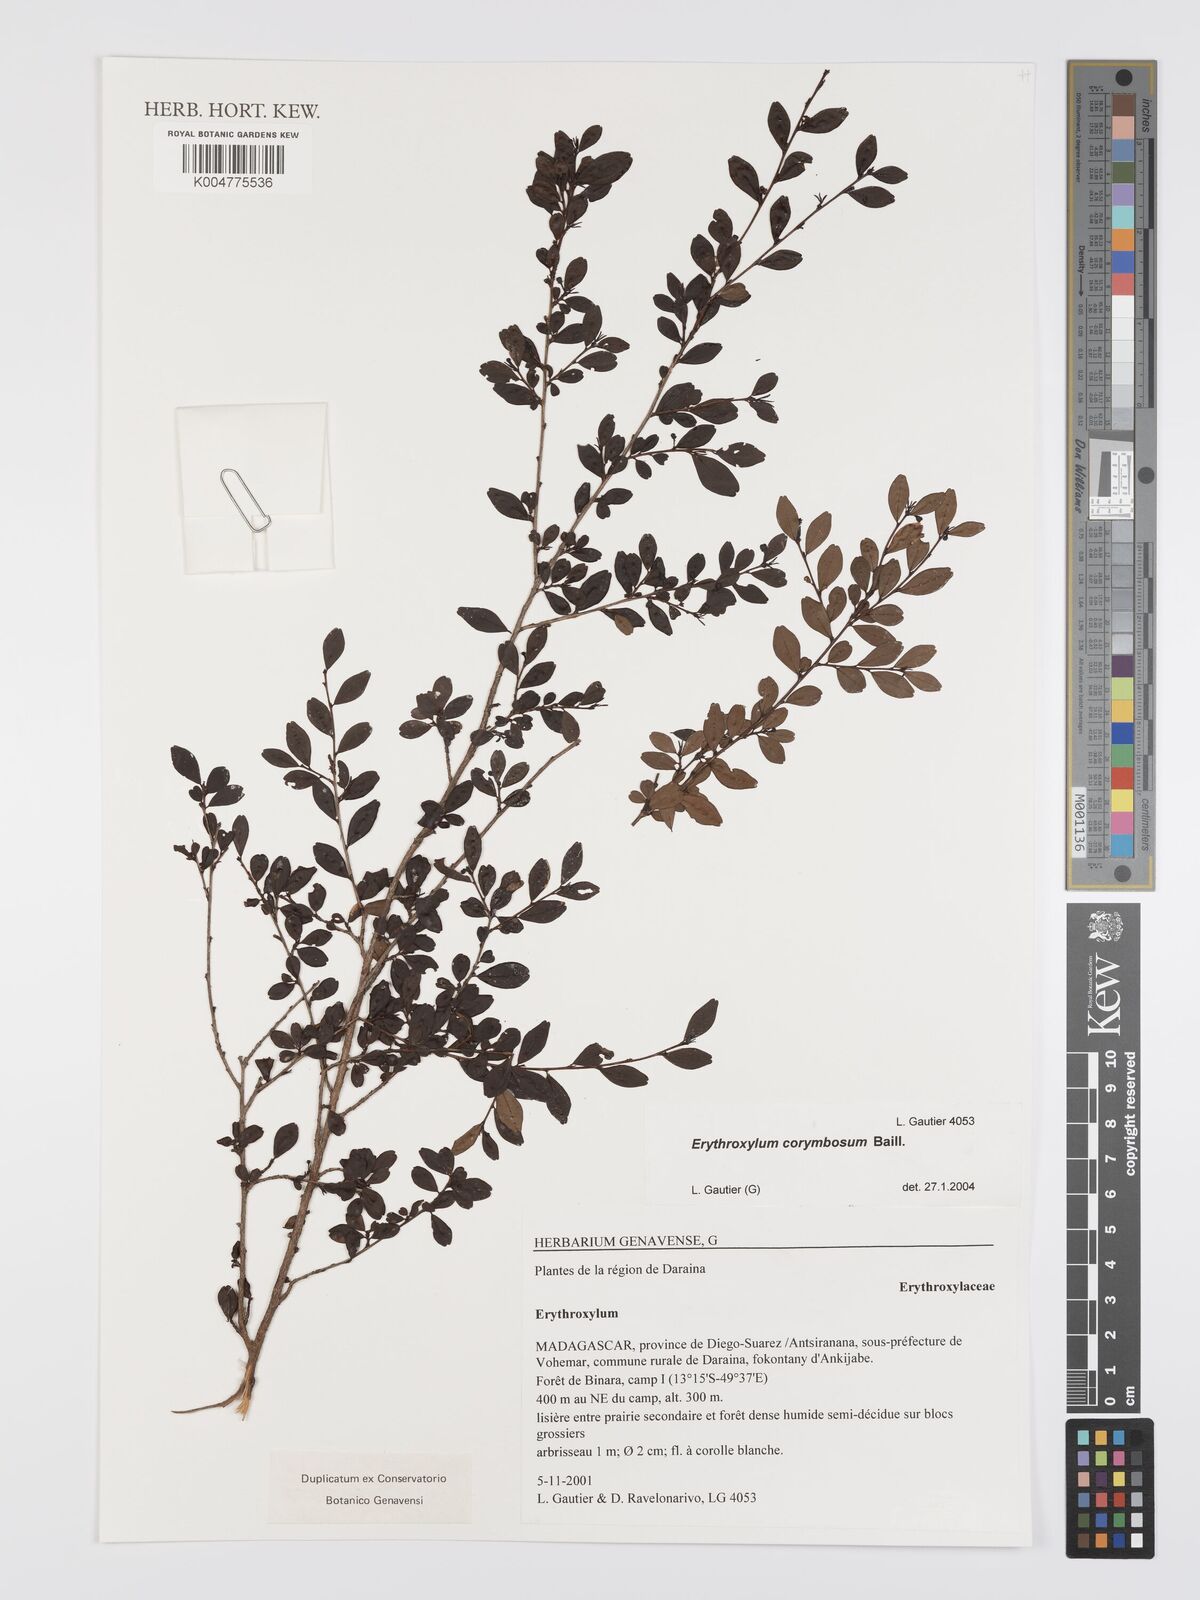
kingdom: Plantae
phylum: Tracheophyta
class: Magnoliopsida
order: Malpighiales
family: Erythroxylaceae
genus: Erythroxylum
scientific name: Erythroxylum corymbosum
